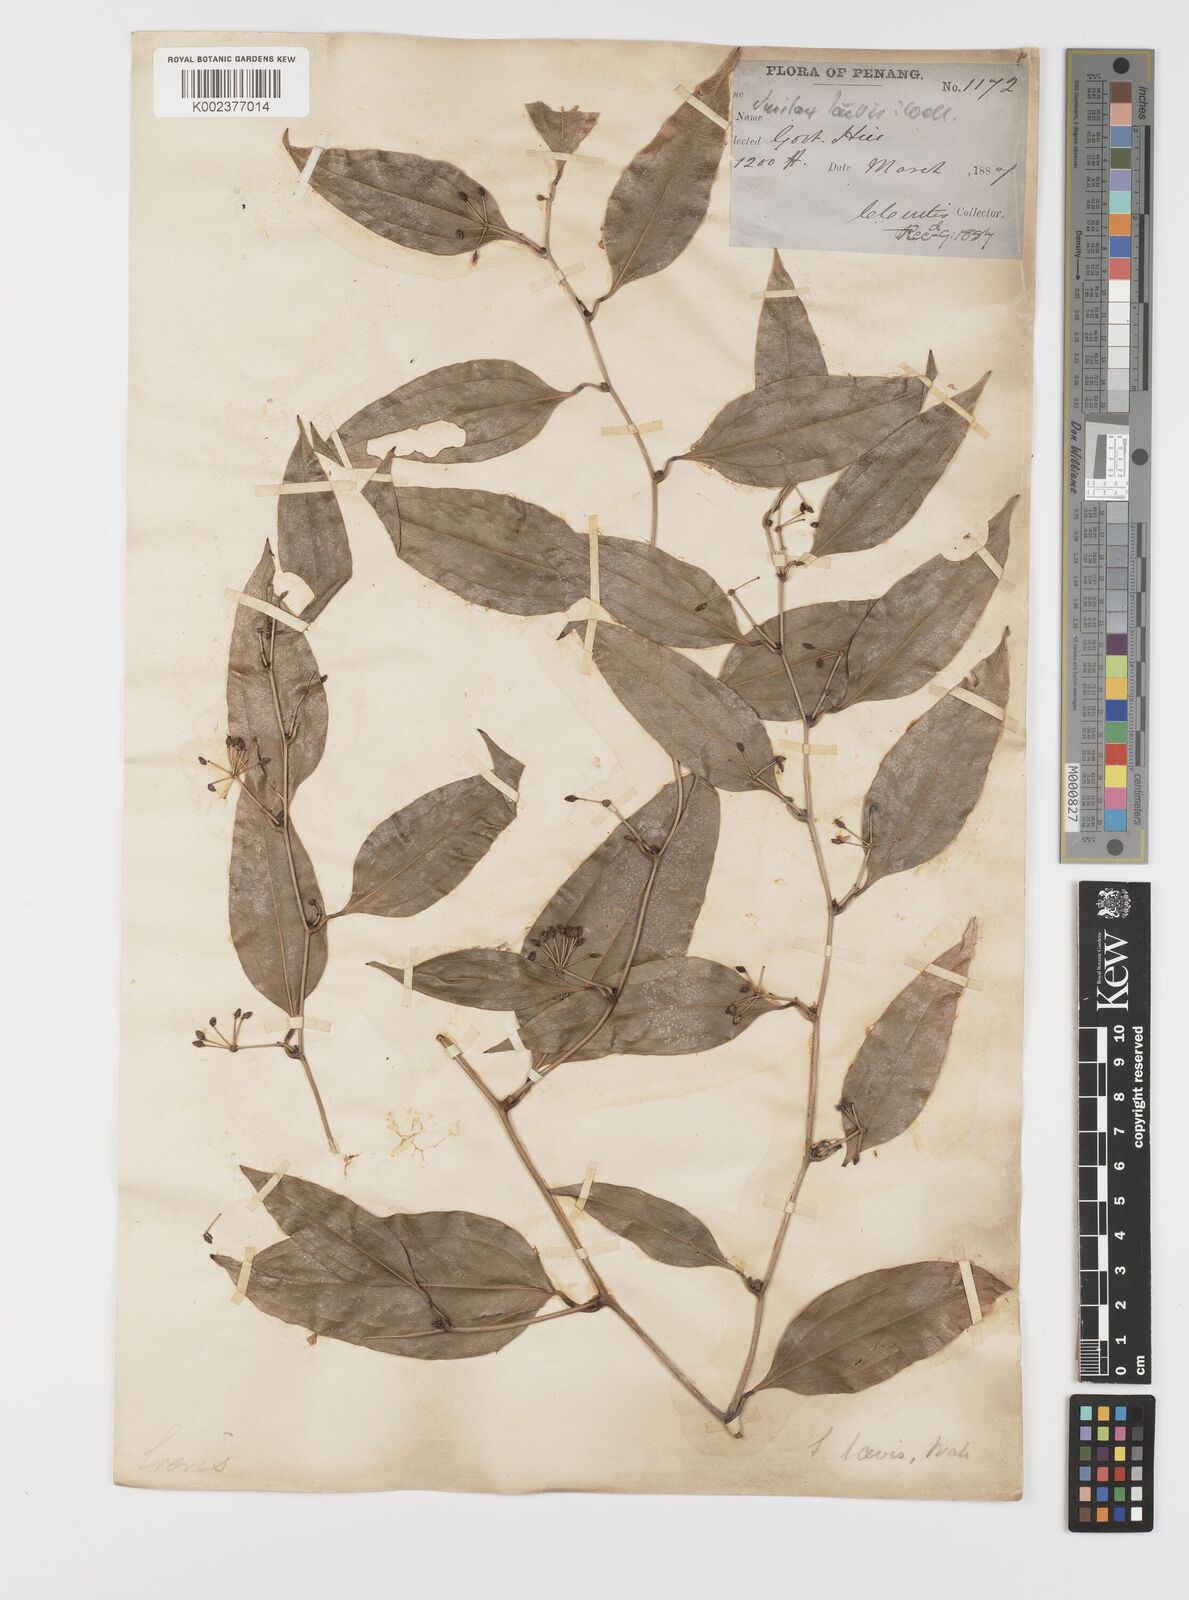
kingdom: Plantae
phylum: Tracheophyta
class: Liliopsida
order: Liliales
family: Smilacaceae
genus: Smilax
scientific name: Smilax laevis
